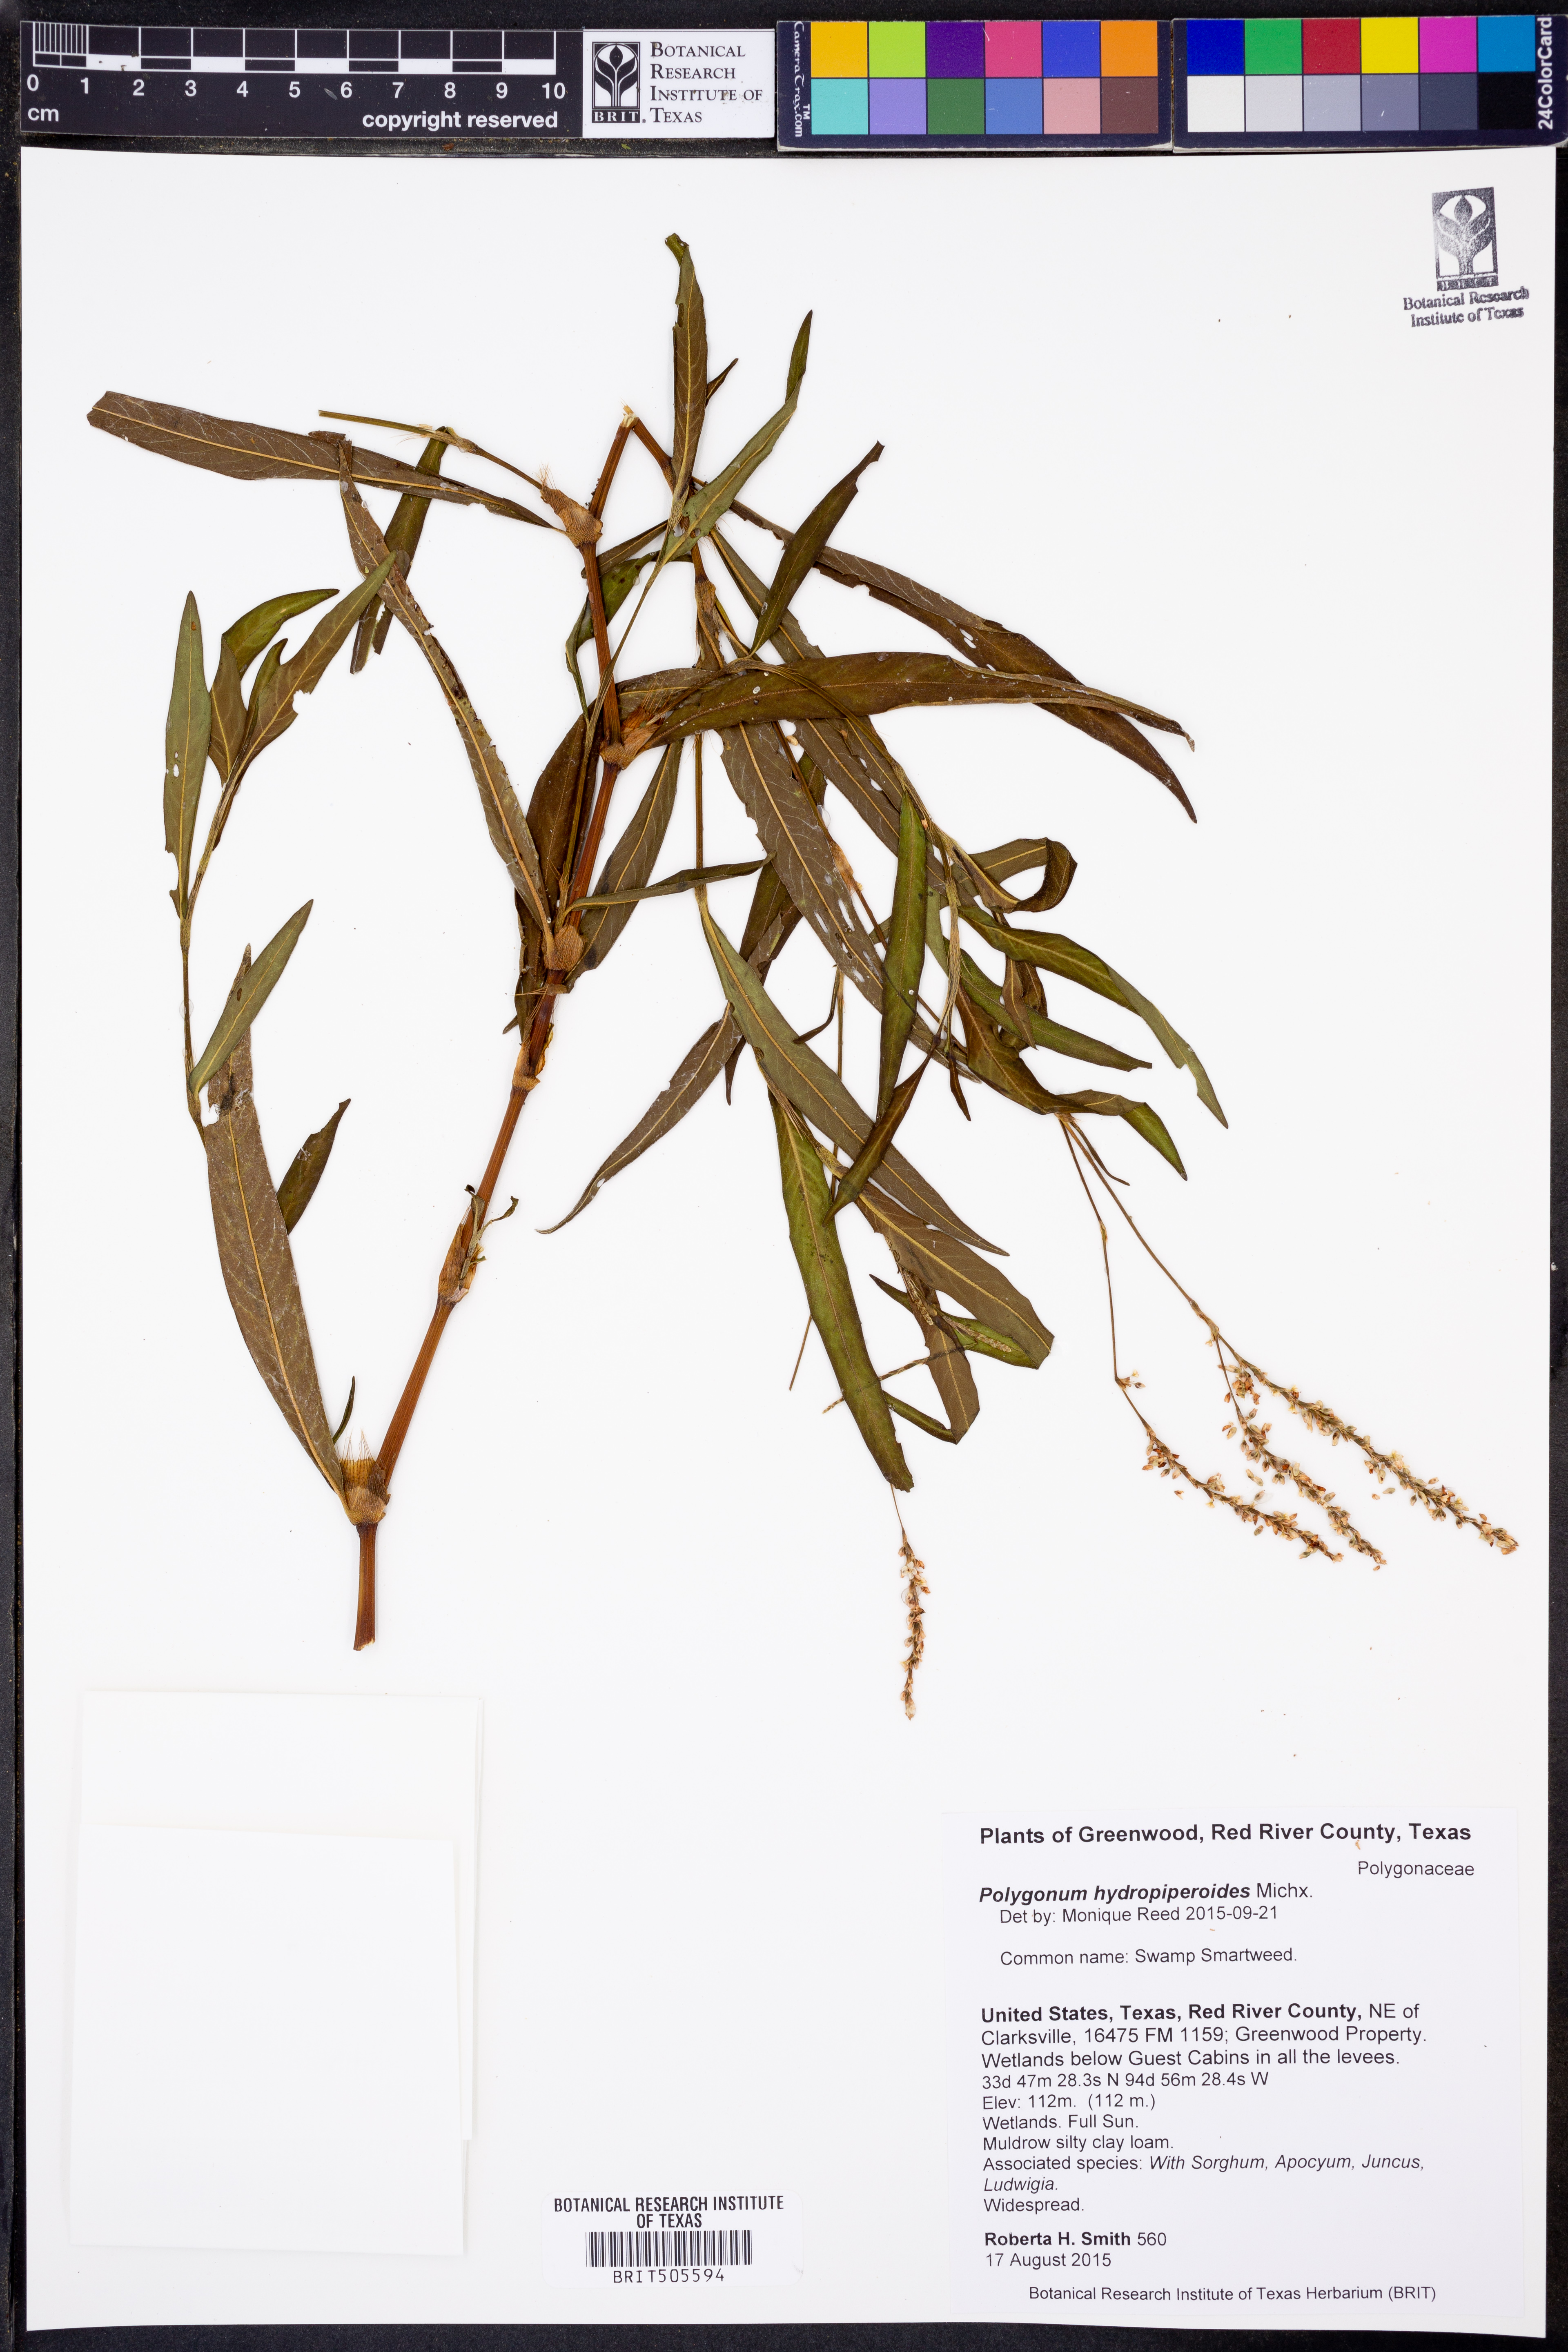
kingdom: Plantae
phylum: Tracheophyta
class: Magnoliopsida
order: Caryophyllales
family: Polygonaceae
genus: Persicaria
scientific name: Persicaria hydropiperoides
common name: Swamp smartweed
